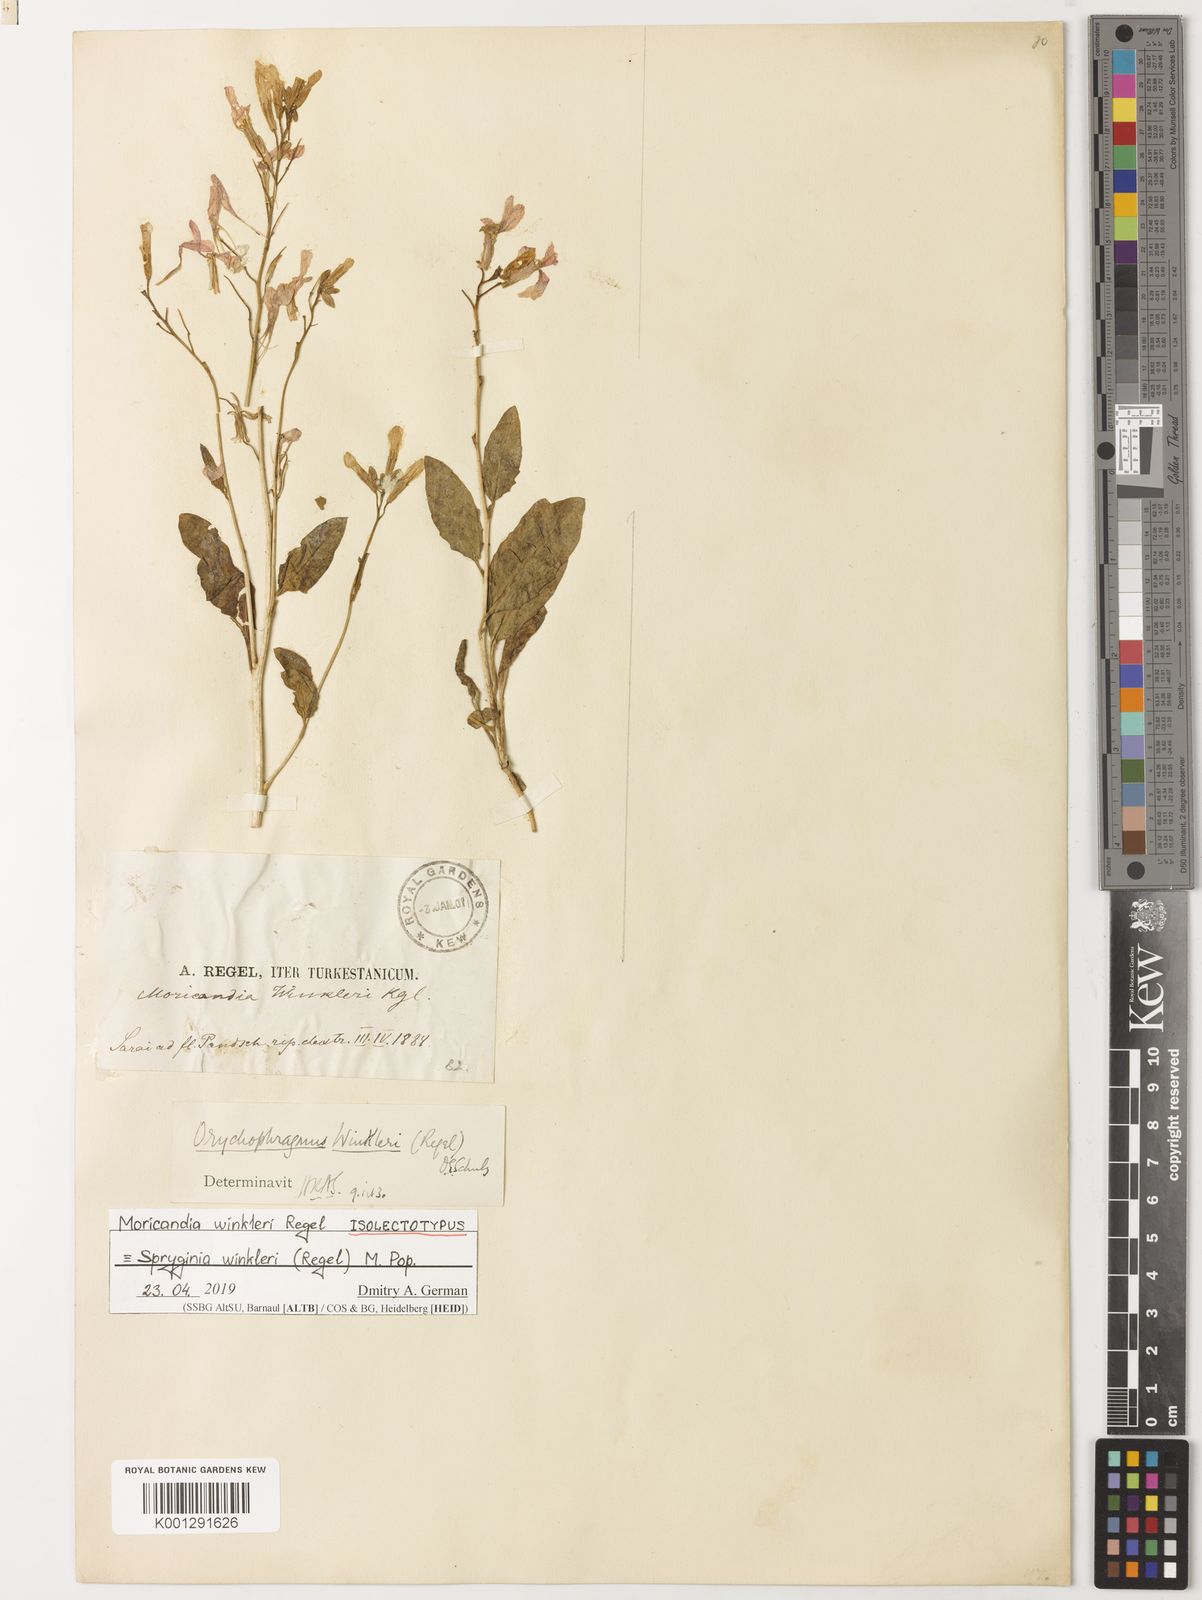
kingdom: Plantae
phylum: Tracheophyta
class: Magnoliopsida
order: Brassicales
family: Brassicaceae
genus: Spryginia
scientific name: Spryginia winkleri
